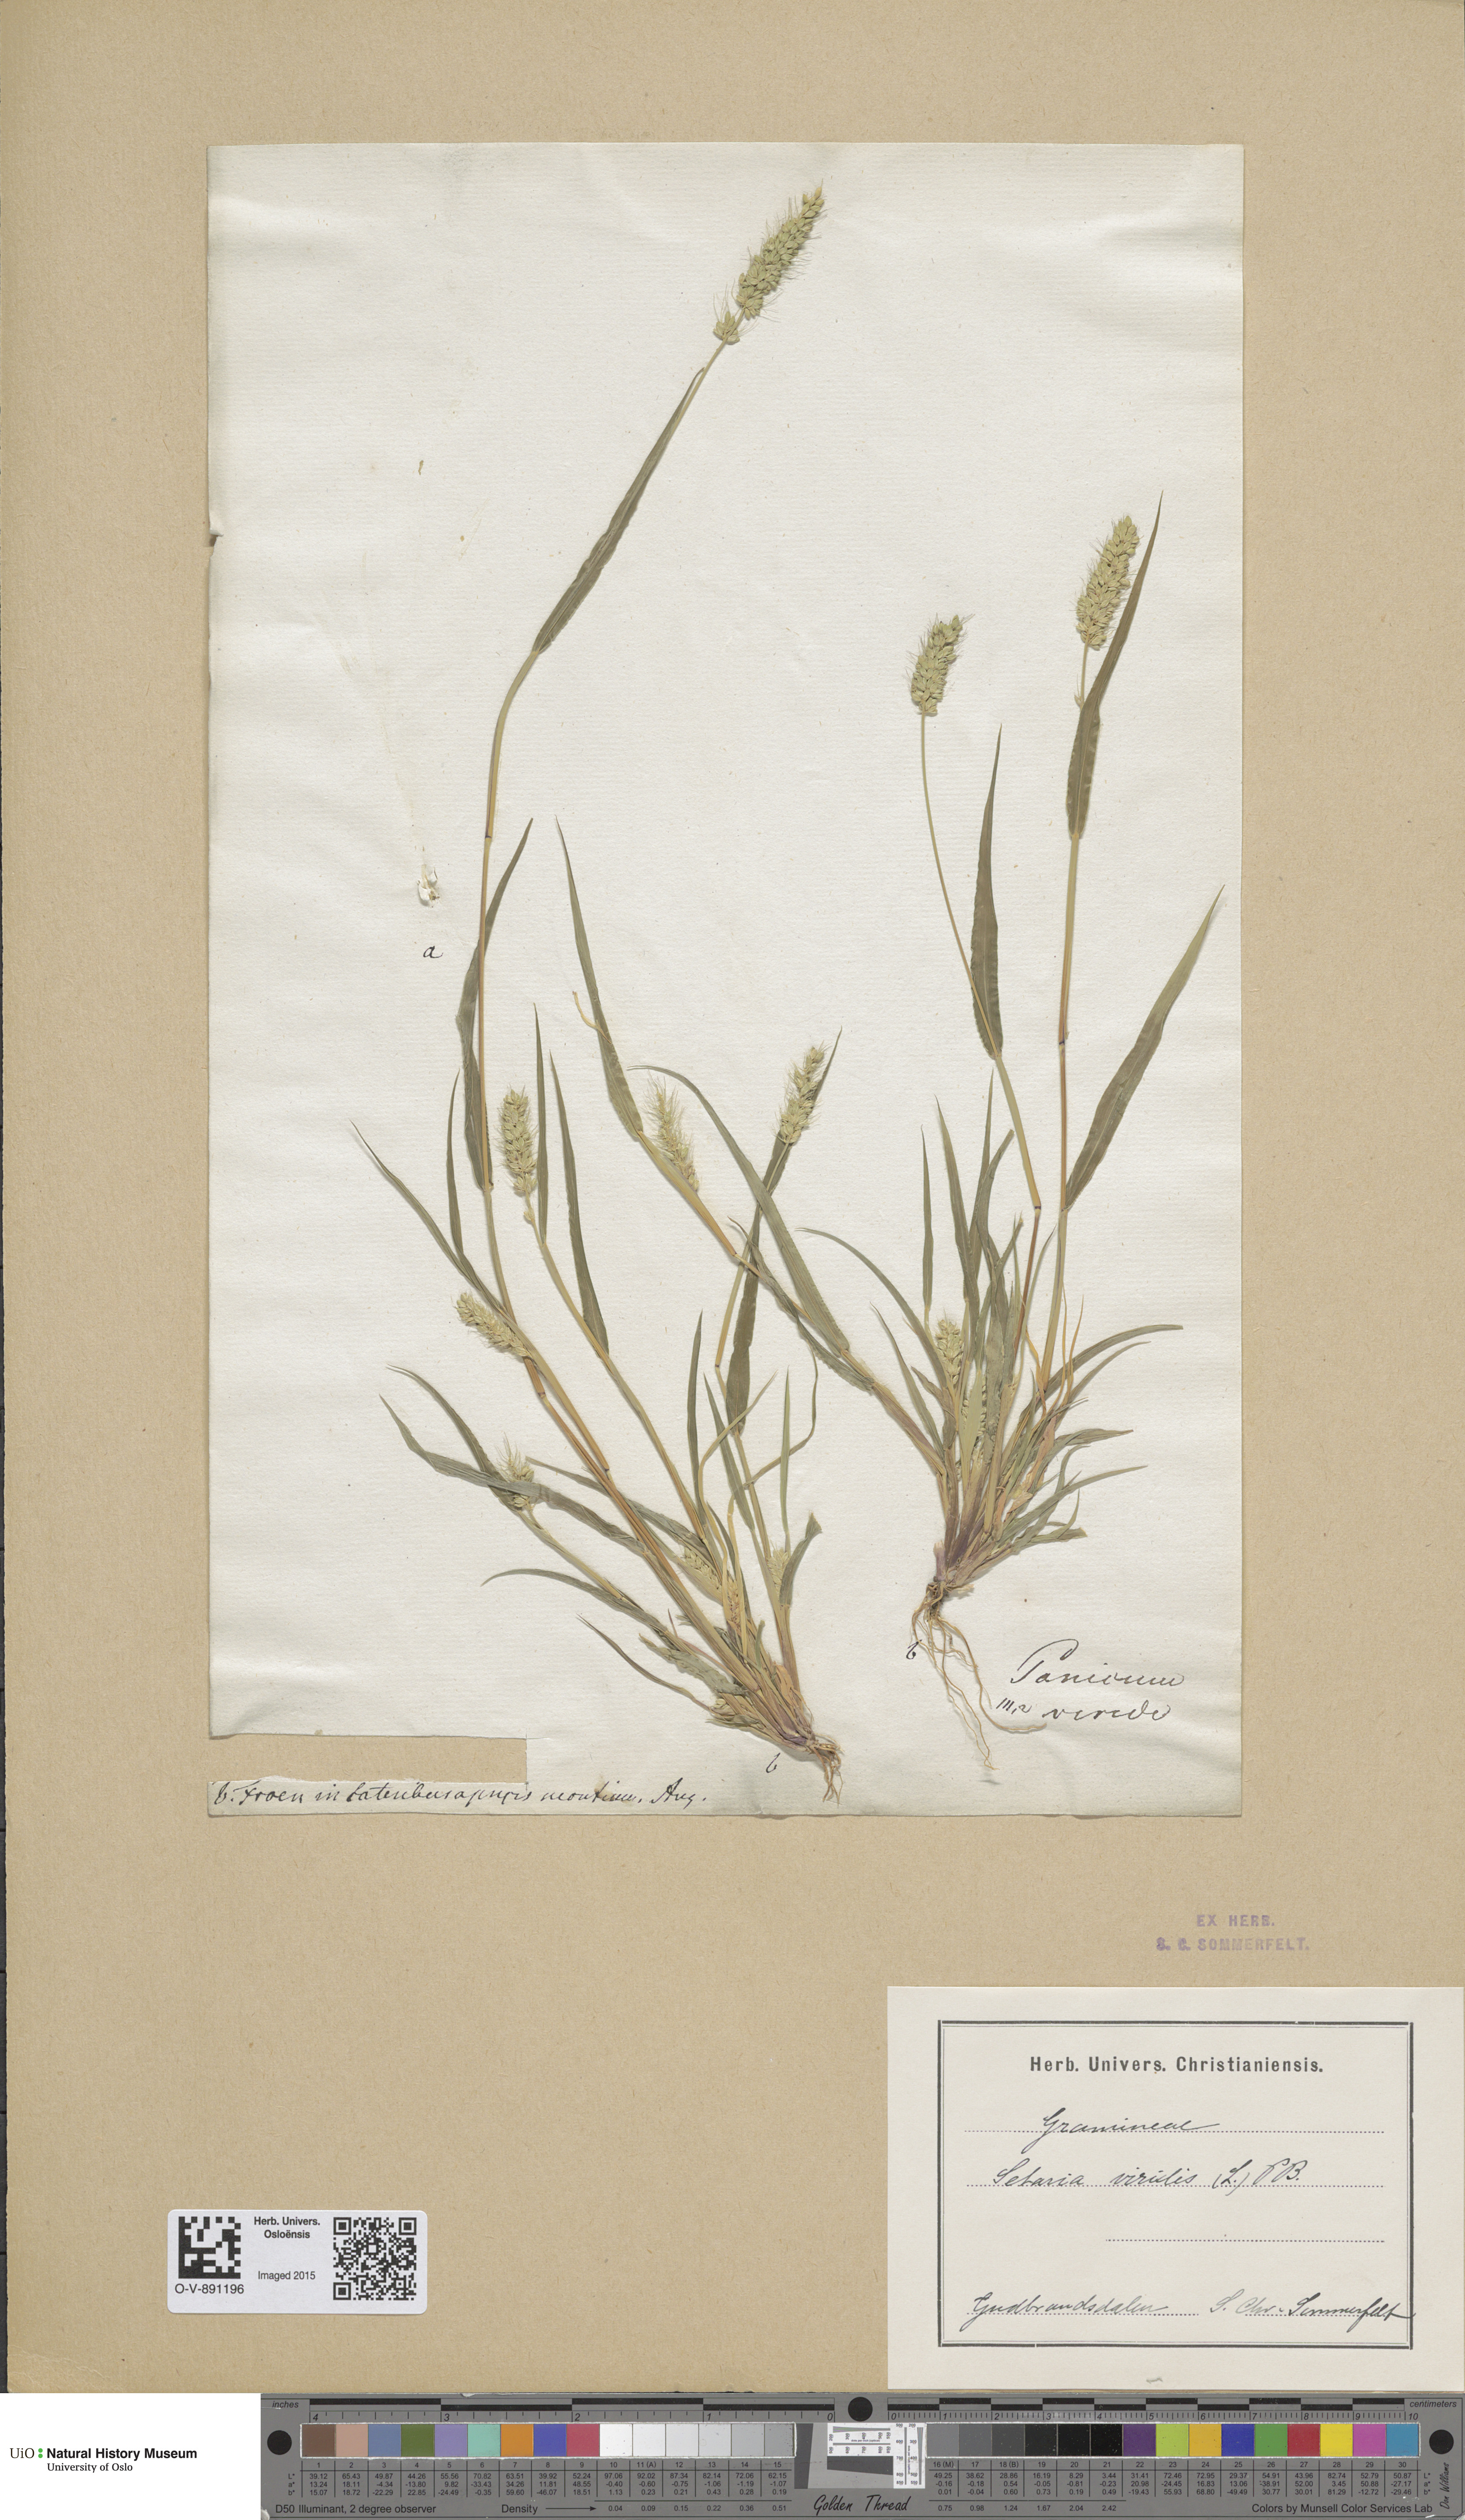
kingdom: Plantae
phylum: Tracheophyta
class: Liliopsida
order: Poales
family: Poaceae
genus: Setaria
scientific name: Setaria viridis
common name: Green bristlegrass
